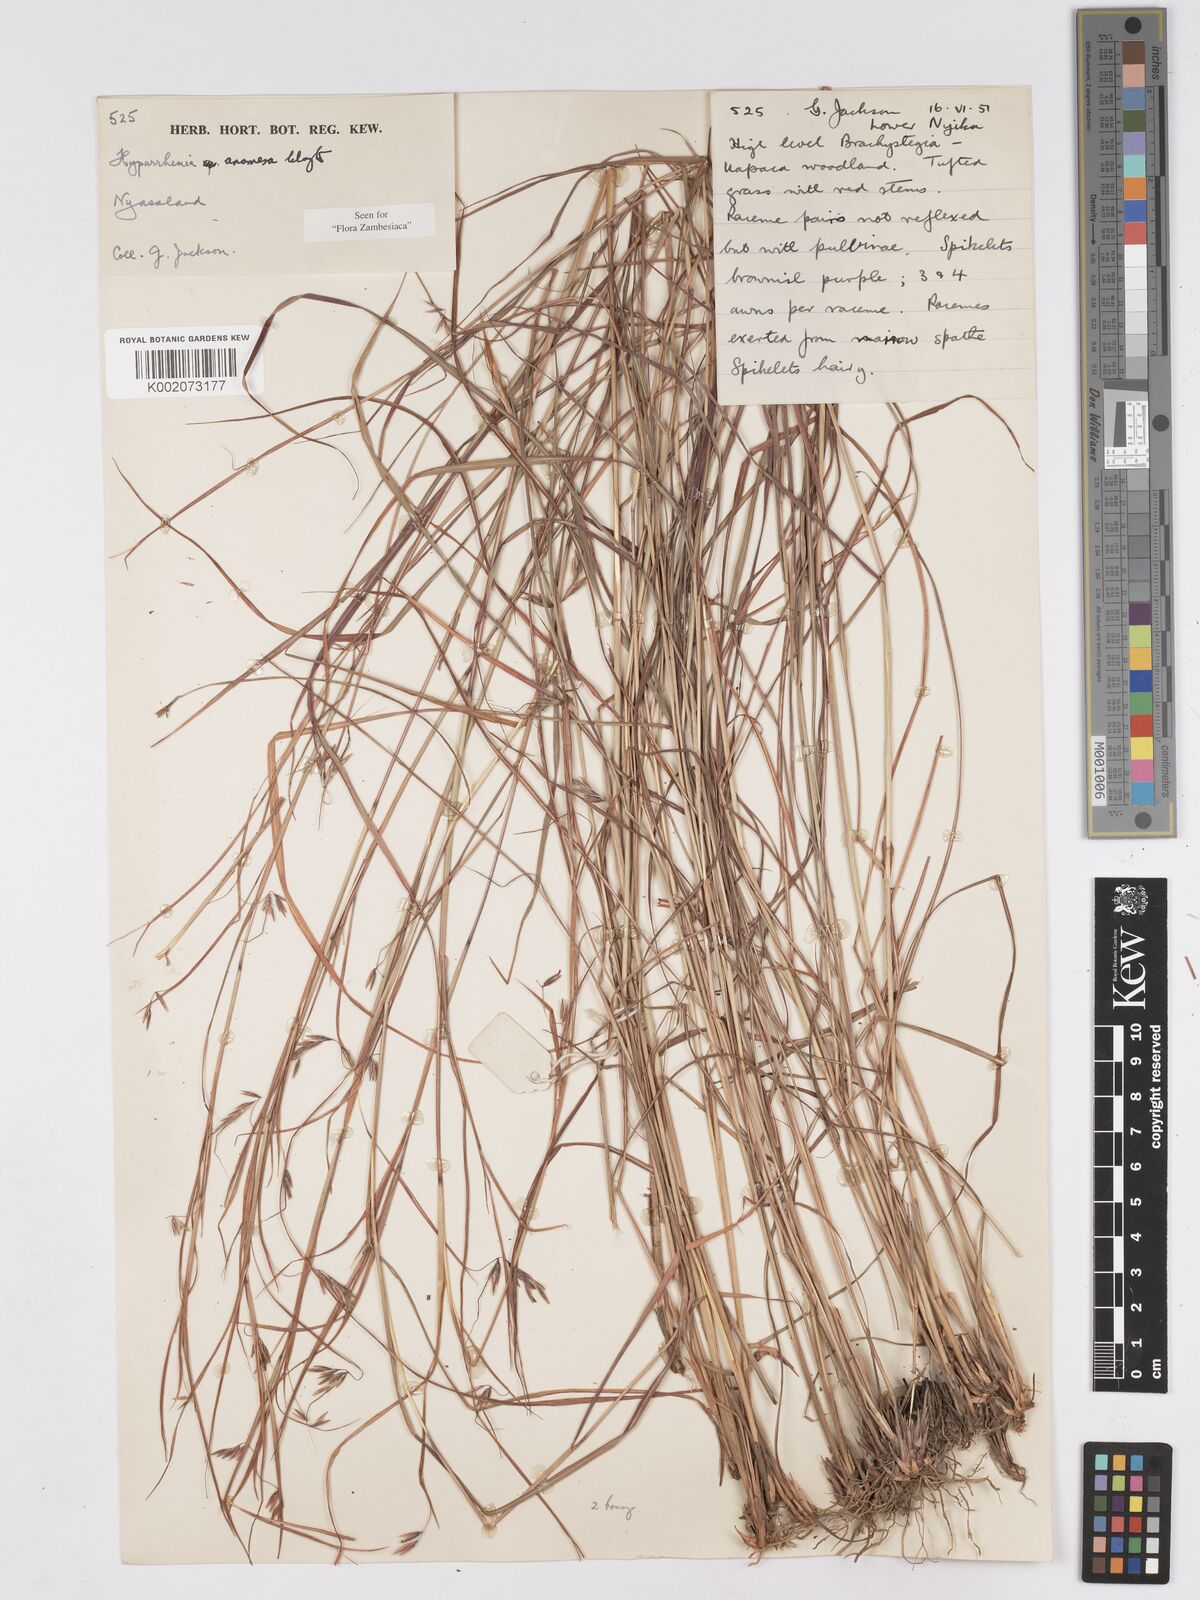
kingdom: Plantae
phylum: Tracheophyta
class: Liliopsida
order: Poales
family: Poaceae
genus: Hyparrhenia
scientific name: Hyparrhenia anamesa
